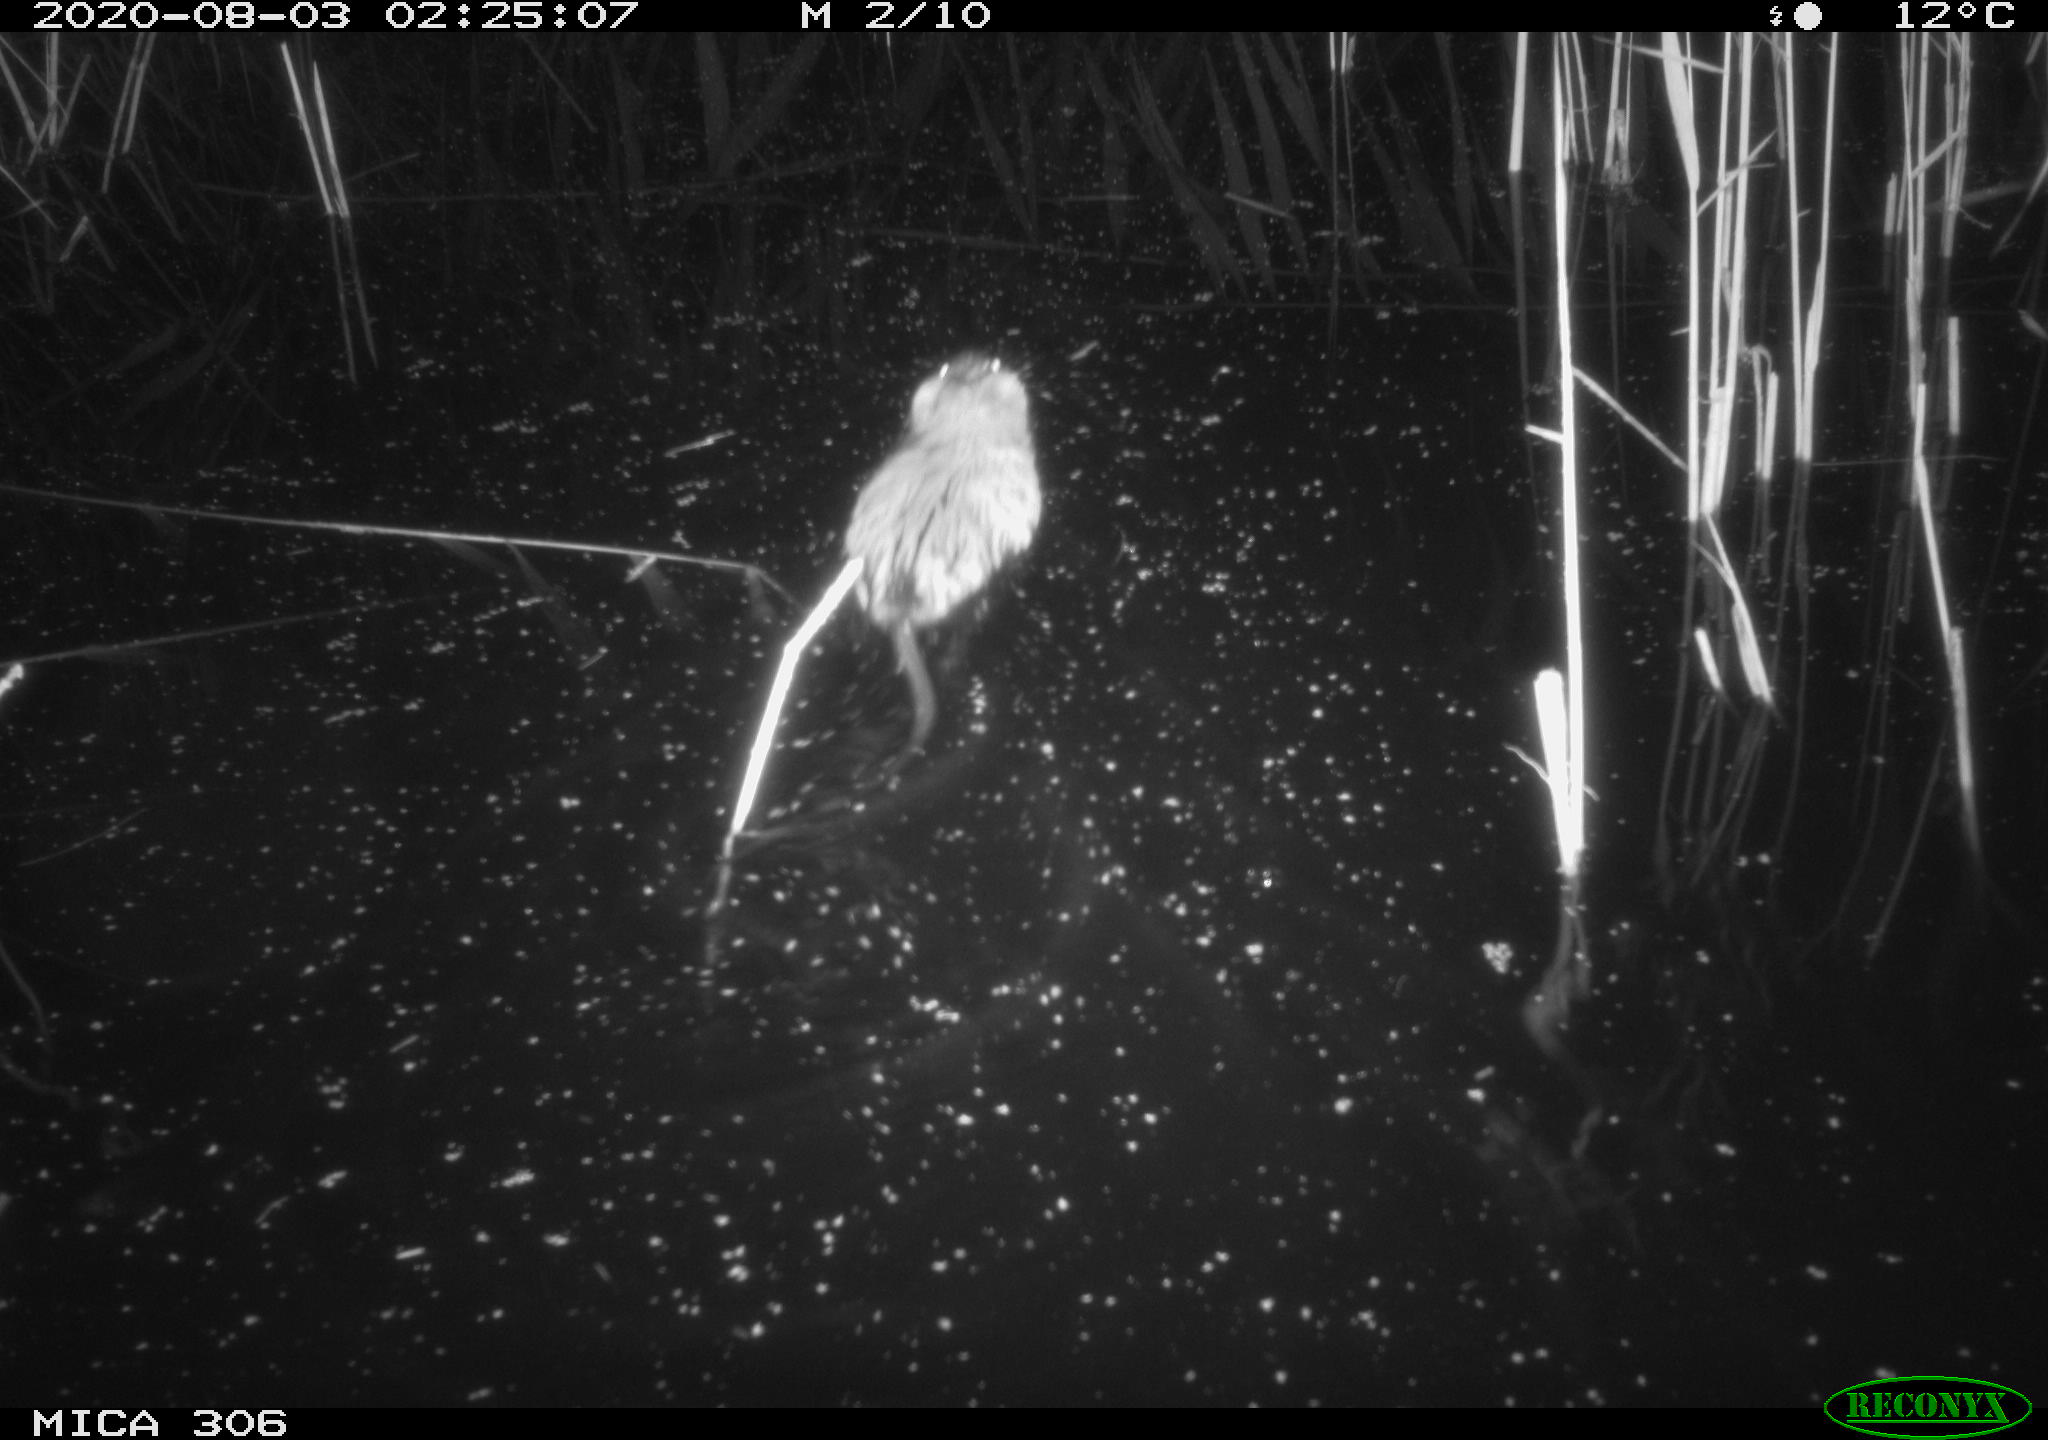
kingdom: Animalia
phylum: Chordata
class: Mammalia
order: Rodentia
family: Cricetidae
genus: Ondatra
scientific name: Ondatra zibethicus
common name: Muskrat
